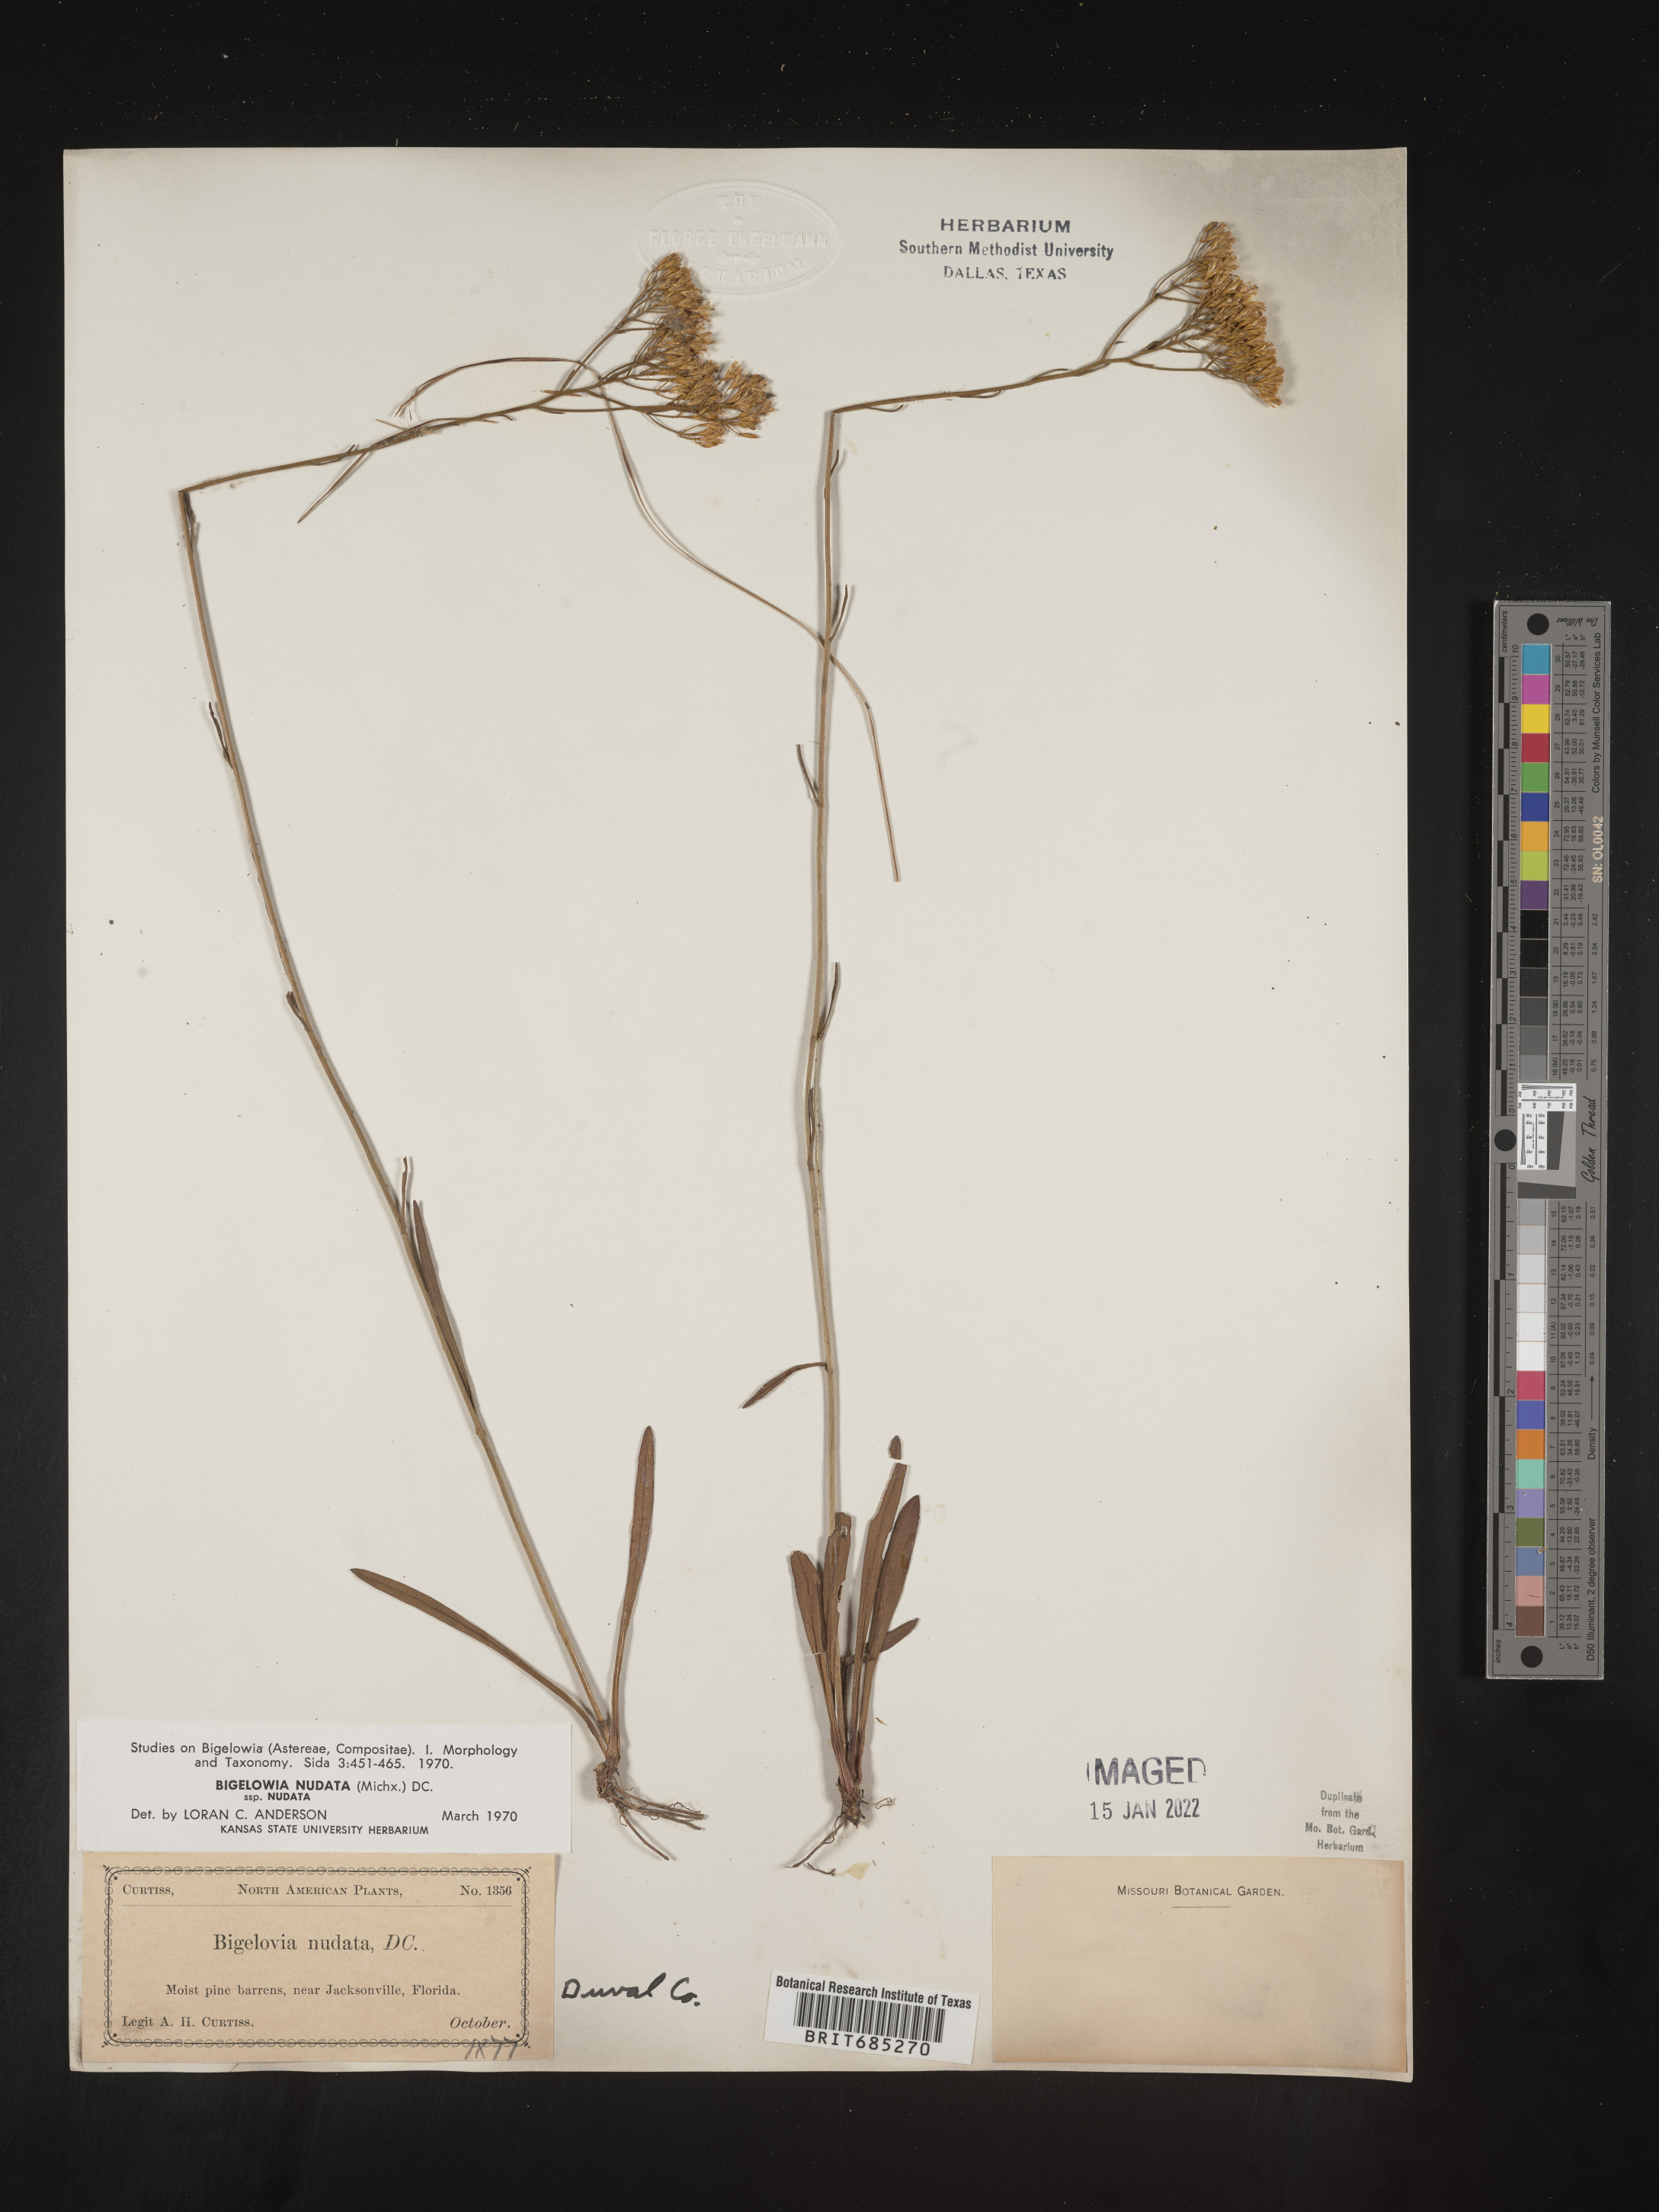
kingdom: Plantae
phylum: Tracheophyta
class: Magnoliopsida
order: Asterales
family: Asteraceae
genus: Bigelowia
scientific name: Bigelowia nudata
